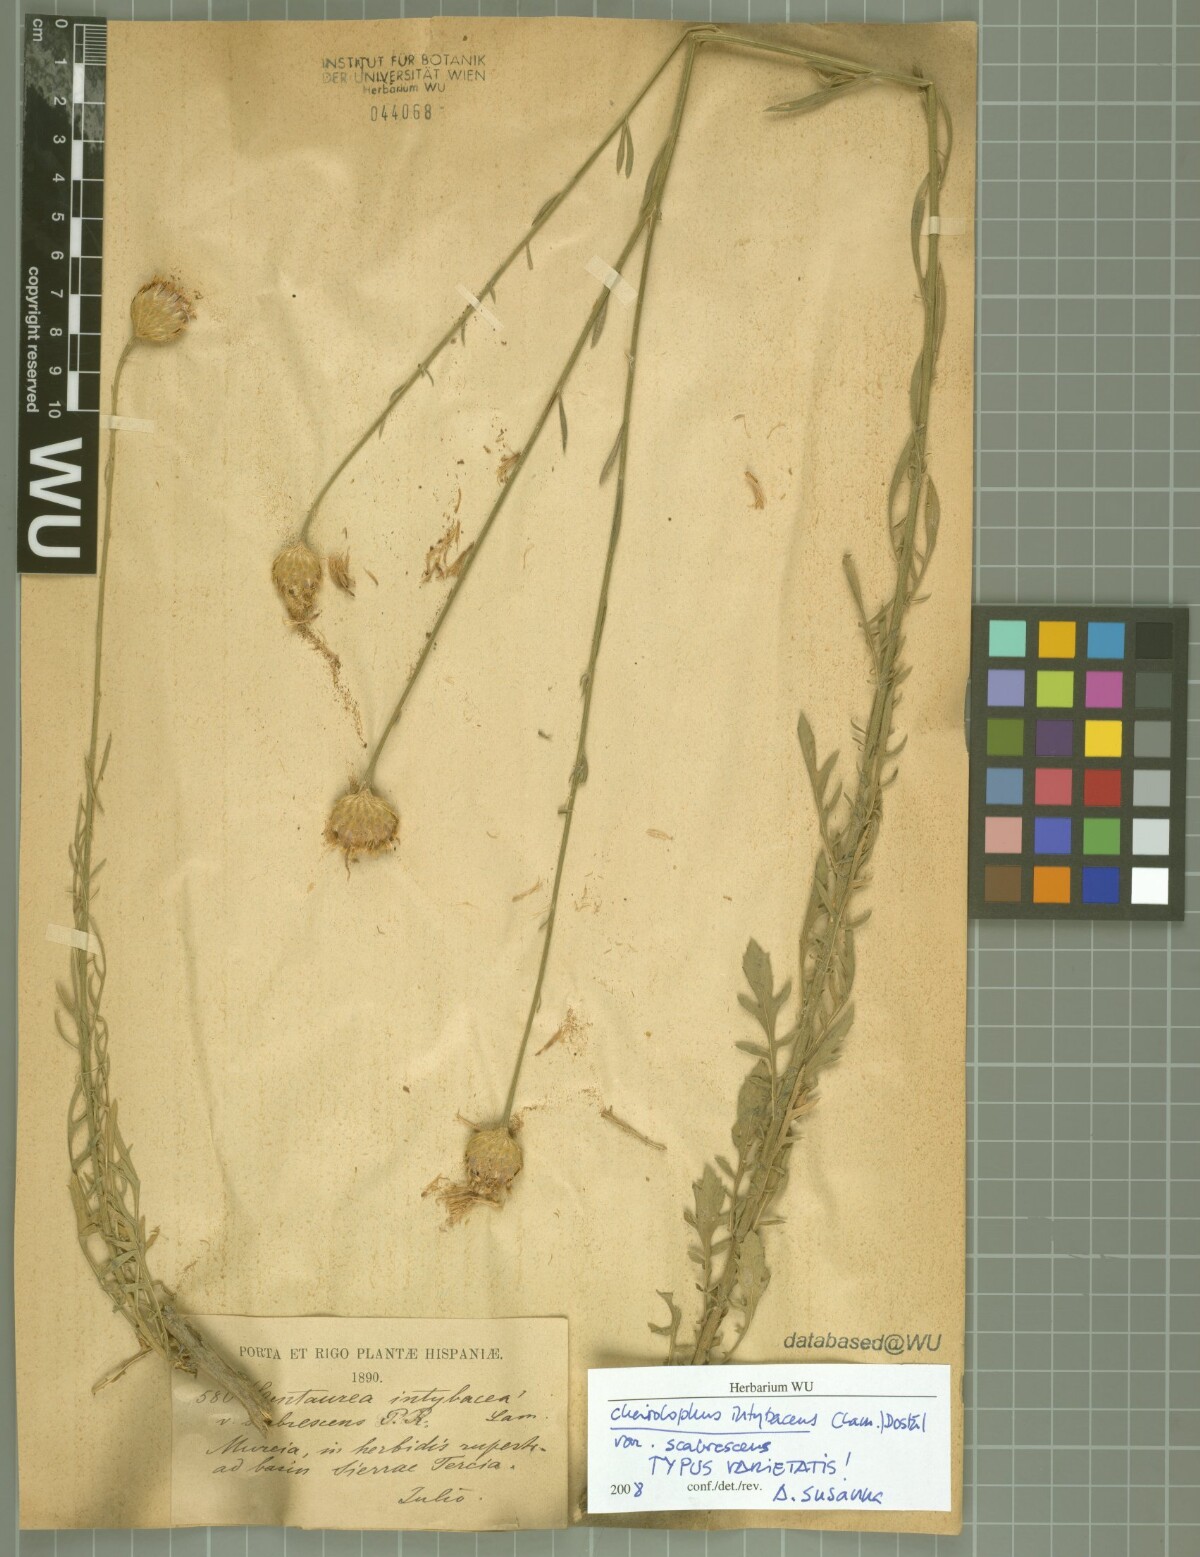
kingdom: Plantae
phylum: Tracheophyta
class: Magnoliopsida
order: Asterales
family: Asteraceae
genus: Cheirolophus
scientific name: Cheirolophus intybaceus
